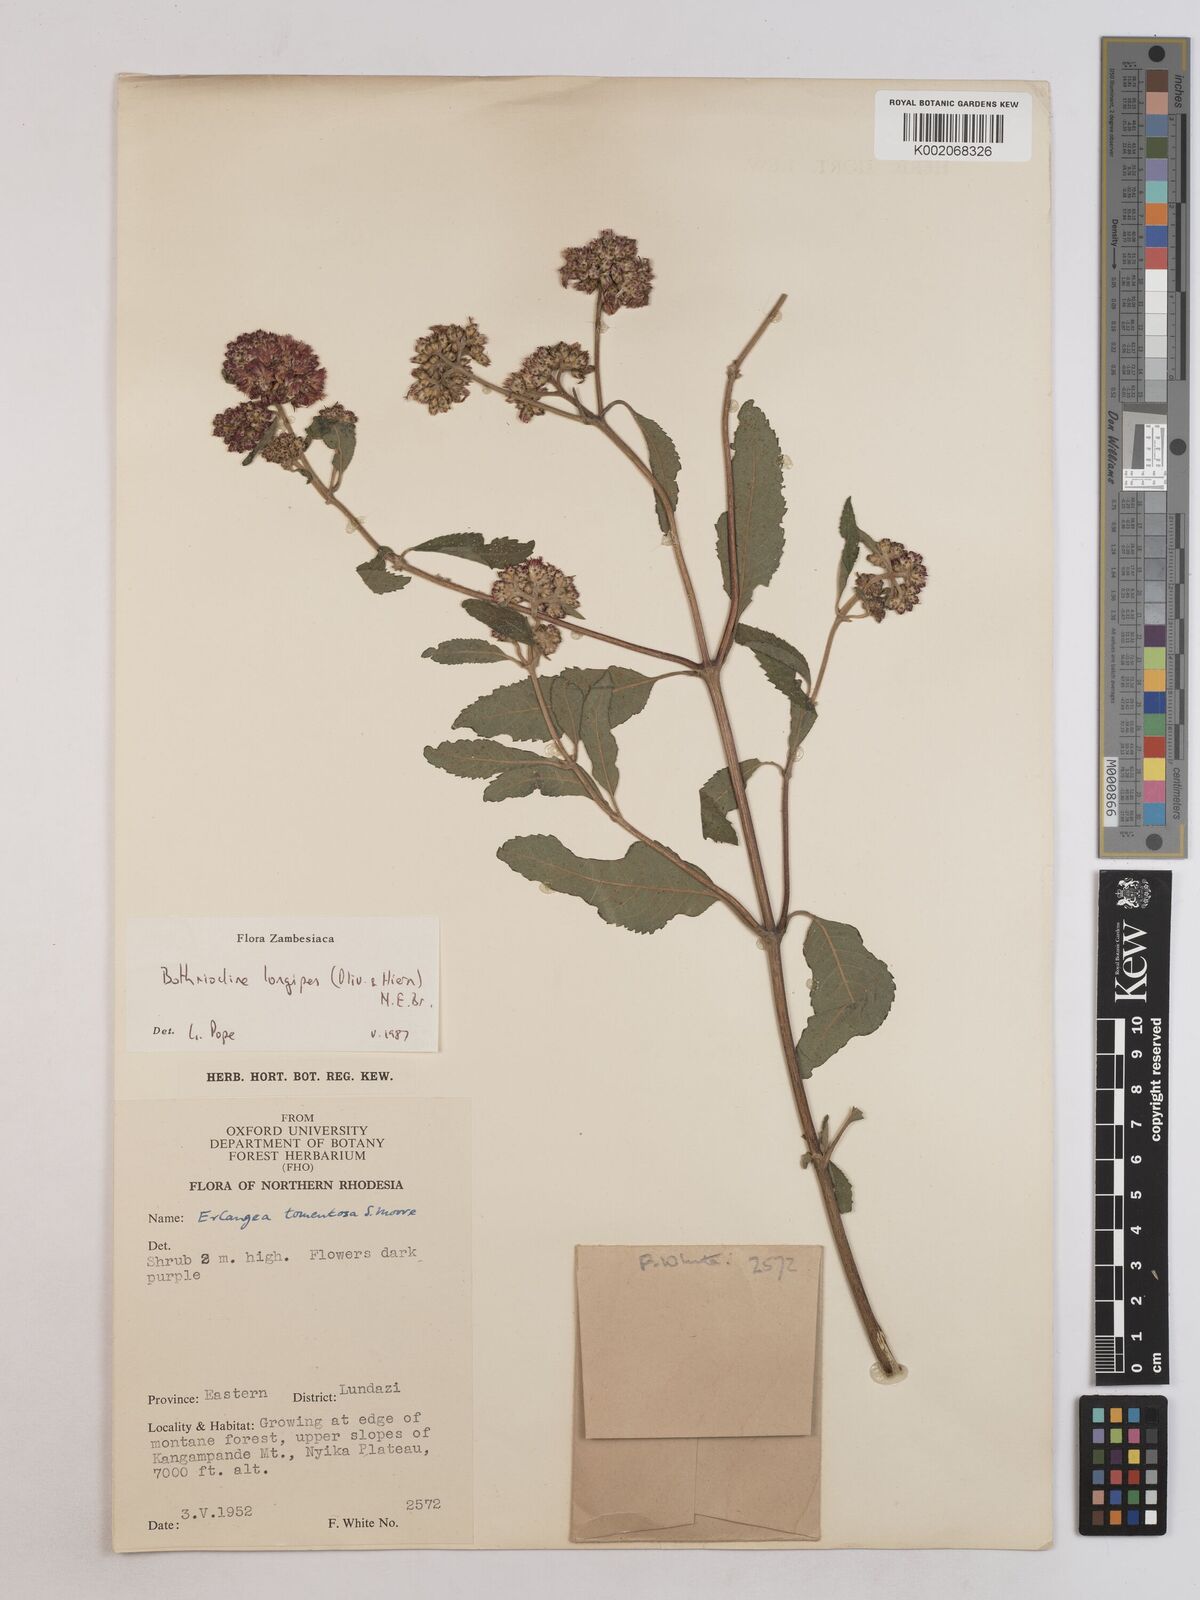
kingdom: Plantae
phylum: Tracheophyta
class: Magnoliopsida
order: Asterales
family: Asteraceae
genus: Bothriocline
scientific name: Bothriocline longipes
